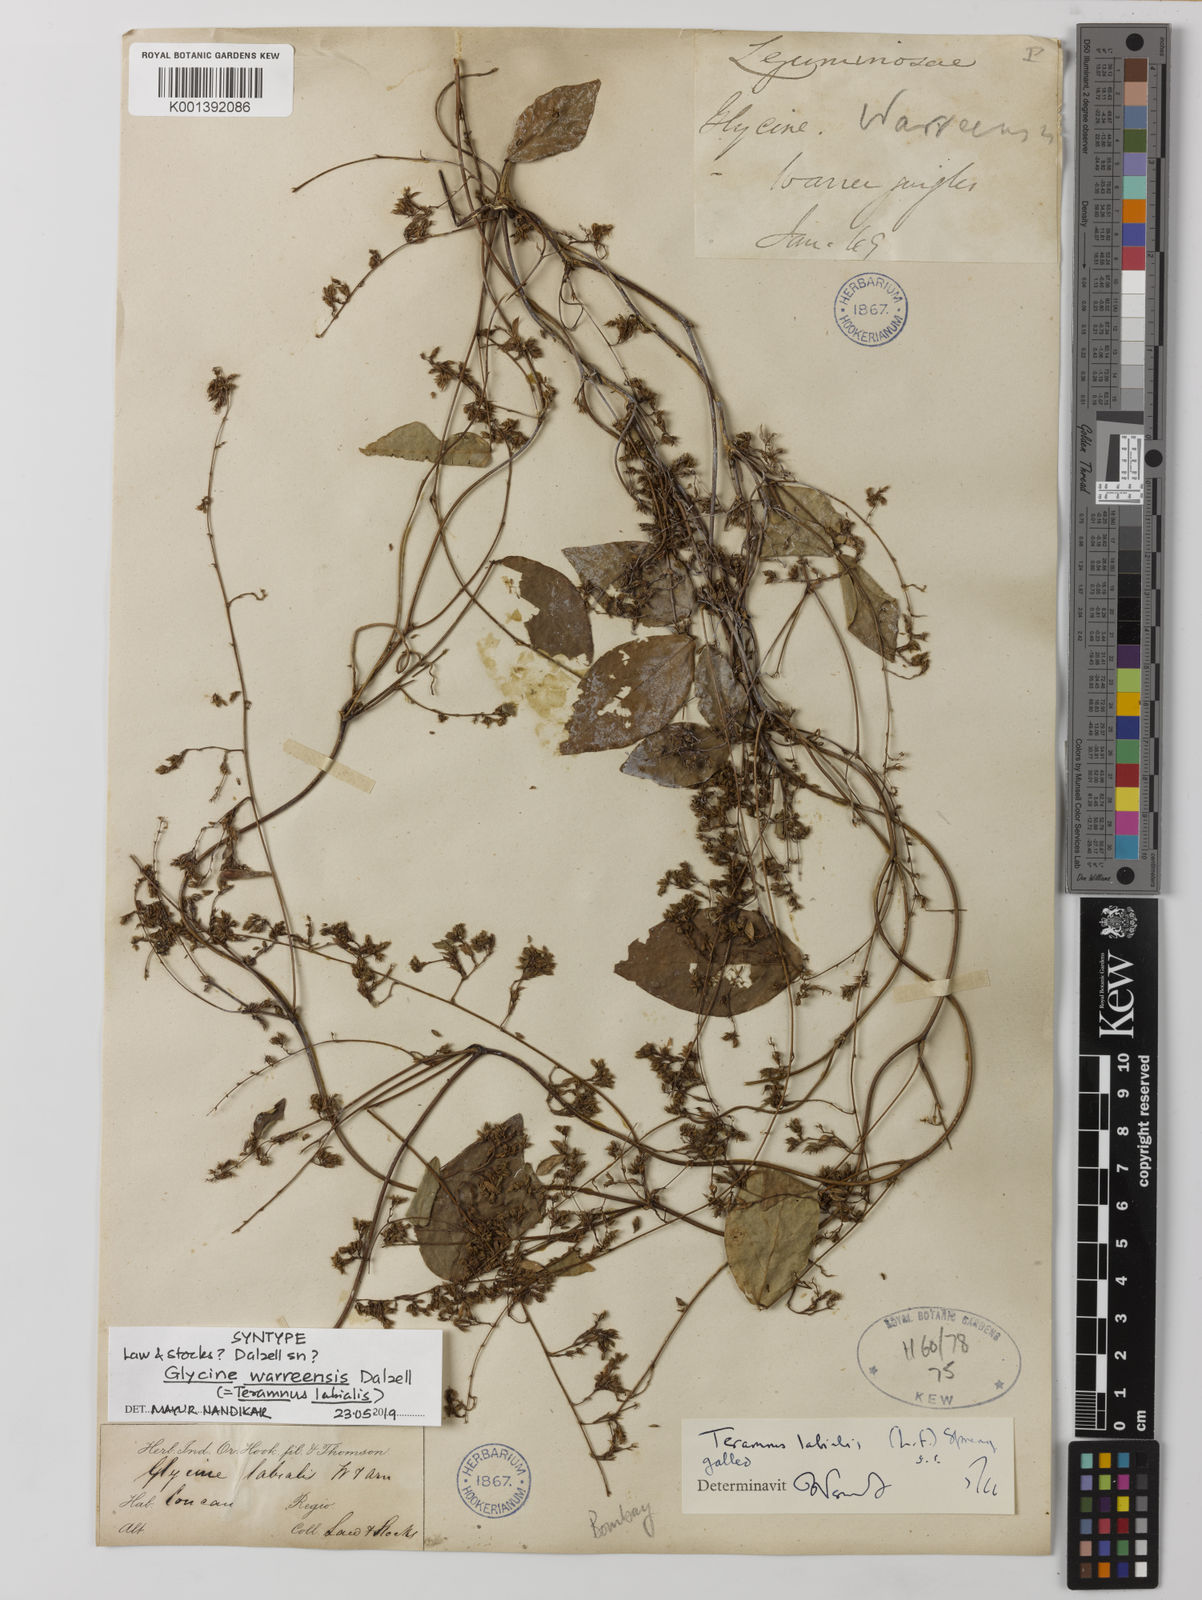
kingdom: Plantae
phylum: Tracheophyta
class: Magnoliopsida
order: Fabales
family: Fabaceae
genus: Teramnus
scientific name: Teramnus labialis
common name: Blue wiss
